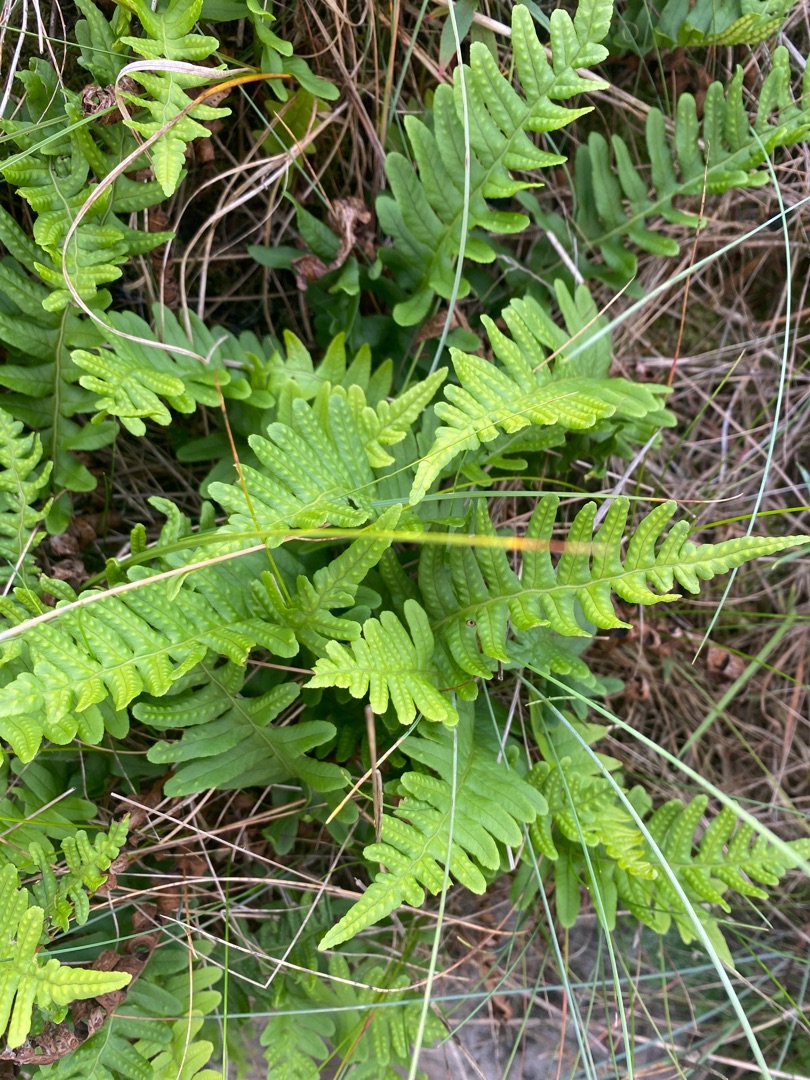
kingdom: Plantae
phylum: Tracheophyta
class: Polypodiopsida
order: Polypodiales
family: Polypodiaceae
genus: Polypodium
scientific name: Polypodium vulgare
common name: Almindelig engelsød
